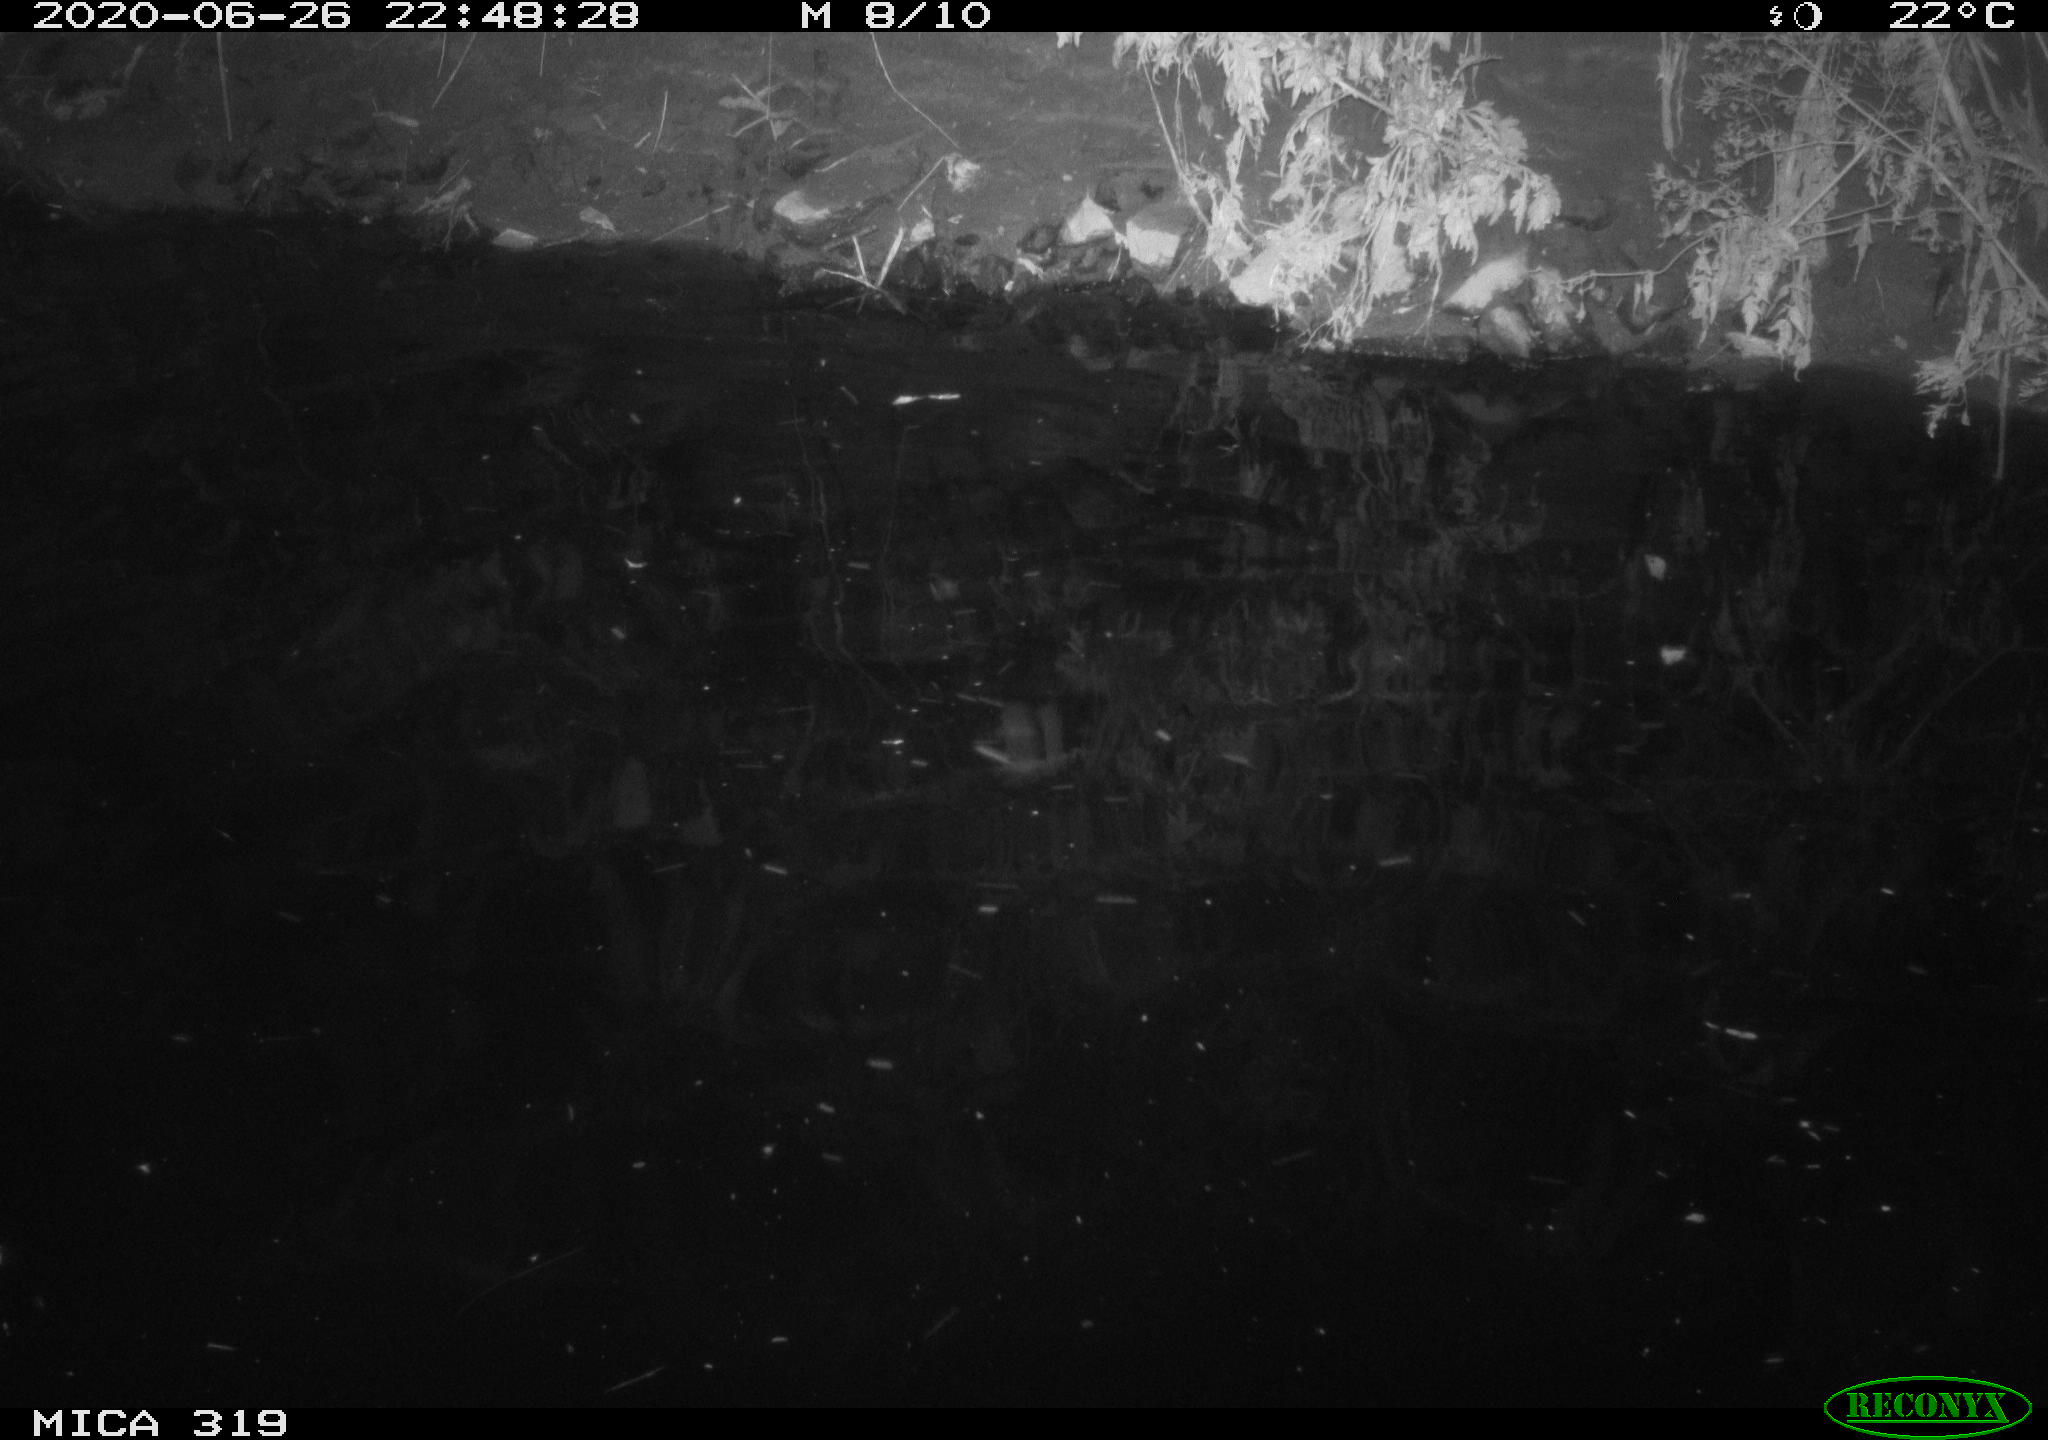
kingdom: Animalia
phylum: Chordata
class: Aves
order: Anseriformes
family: Anatidae
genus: Anas
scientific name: Anas platyrhynchos
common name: Mallard
